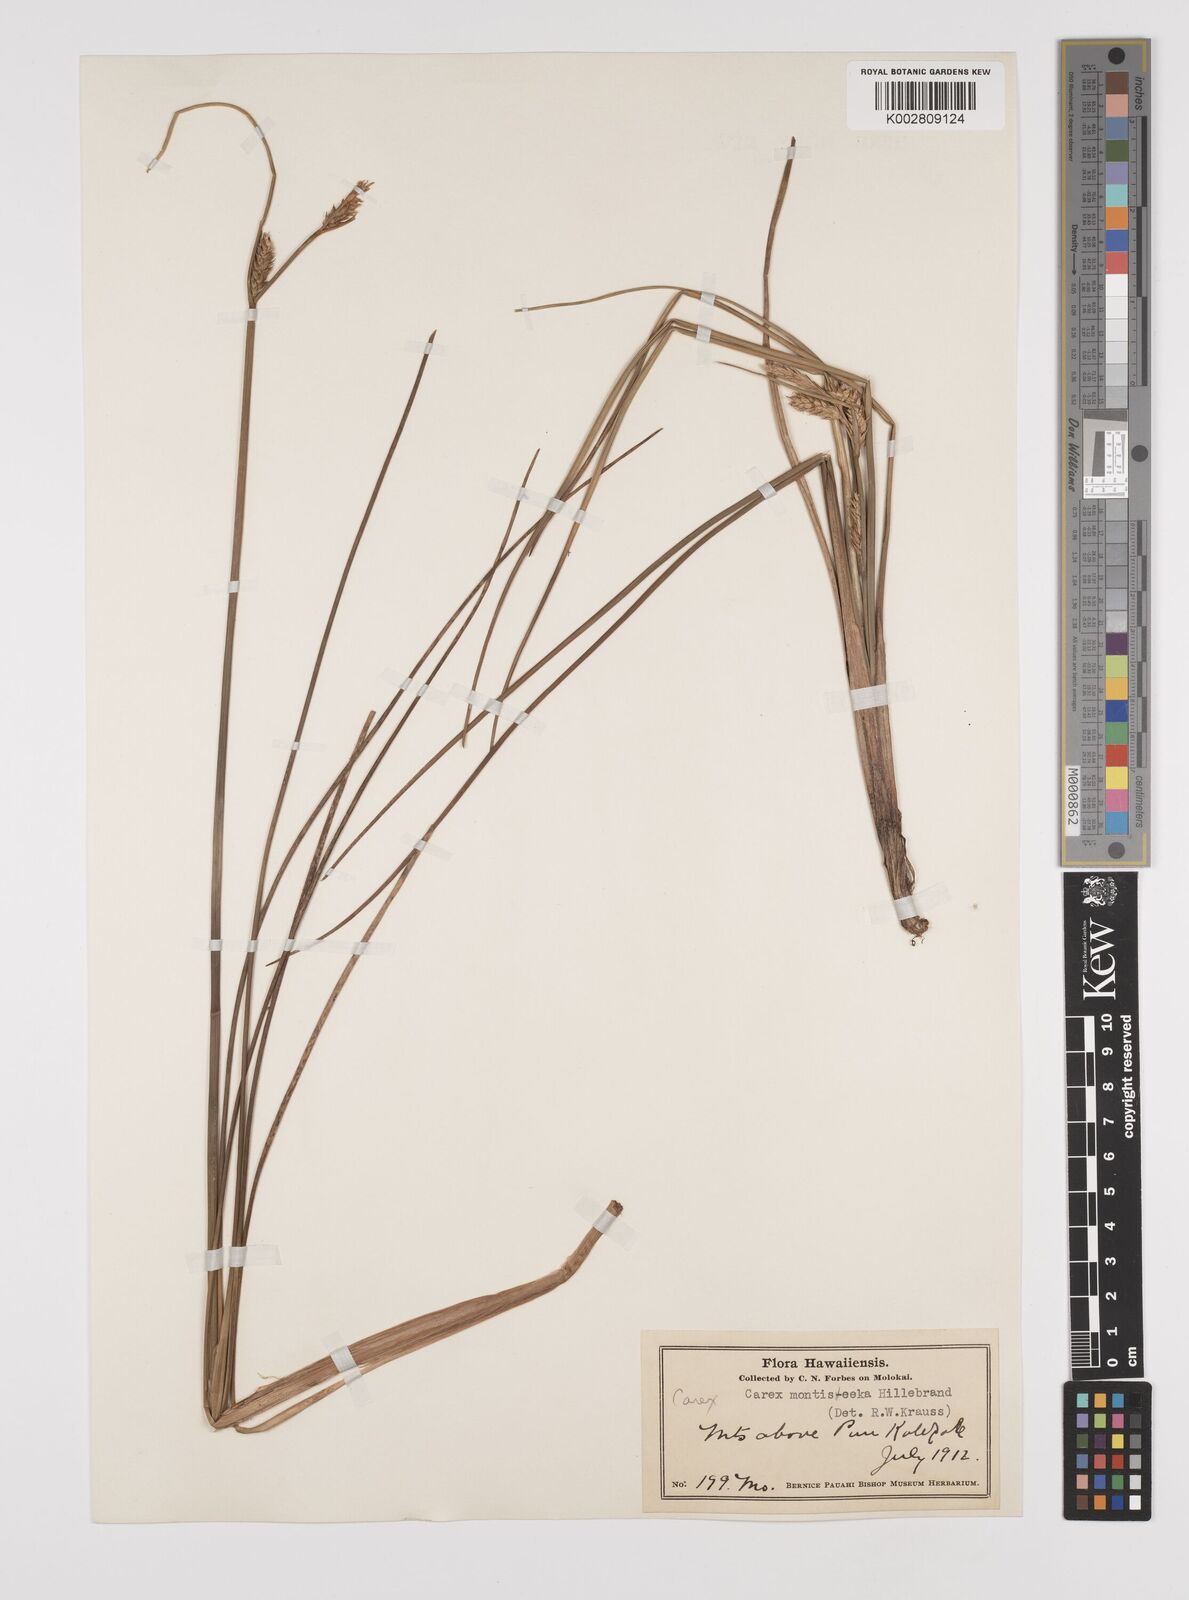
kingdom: Plantae
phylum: Tracheophyta
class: Liliopsida
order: Poales
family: Cyperaceae
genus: Carex
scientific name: Carex montis-eeka
